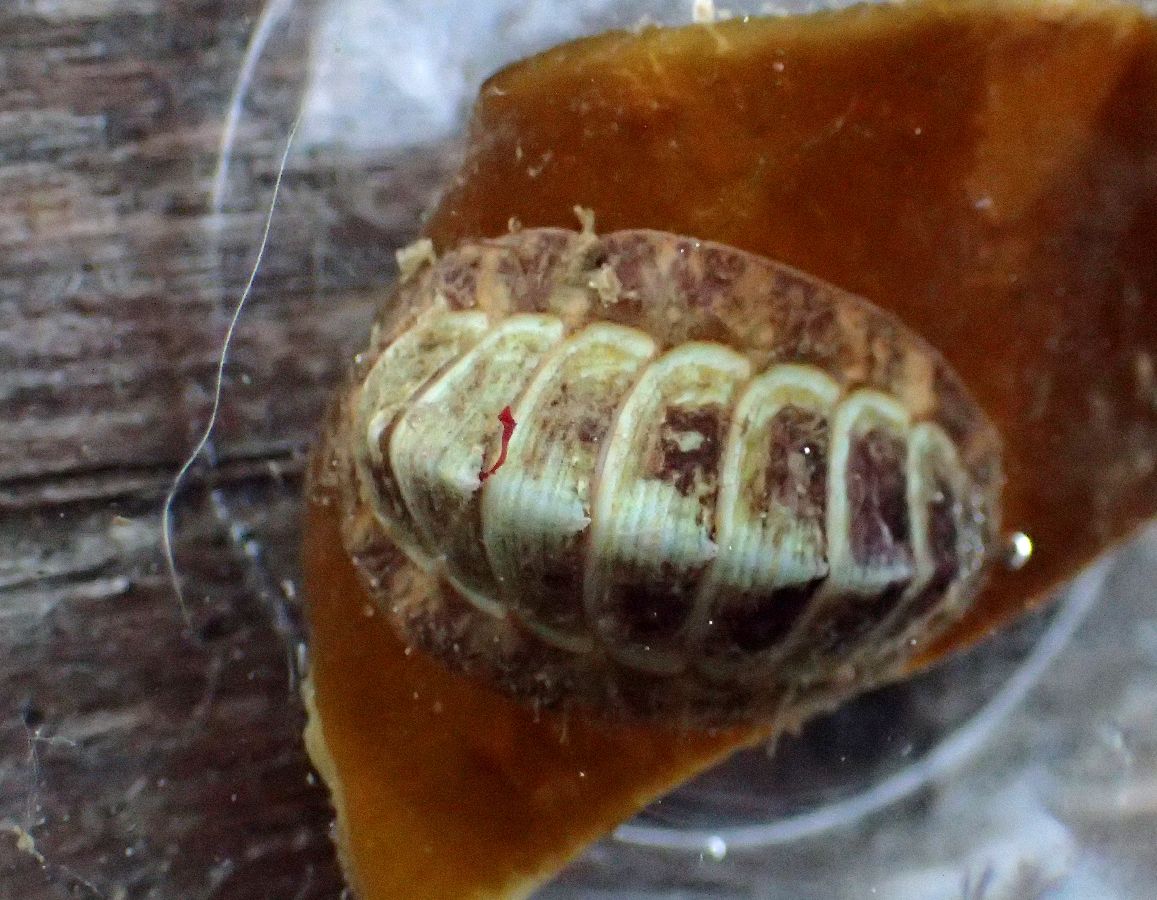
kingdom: Animalia
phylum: Mollusca
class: Polyplacophora
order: Chitonida
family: Tonicellidae
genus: Tonicella
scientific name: Tonicella marmorea
